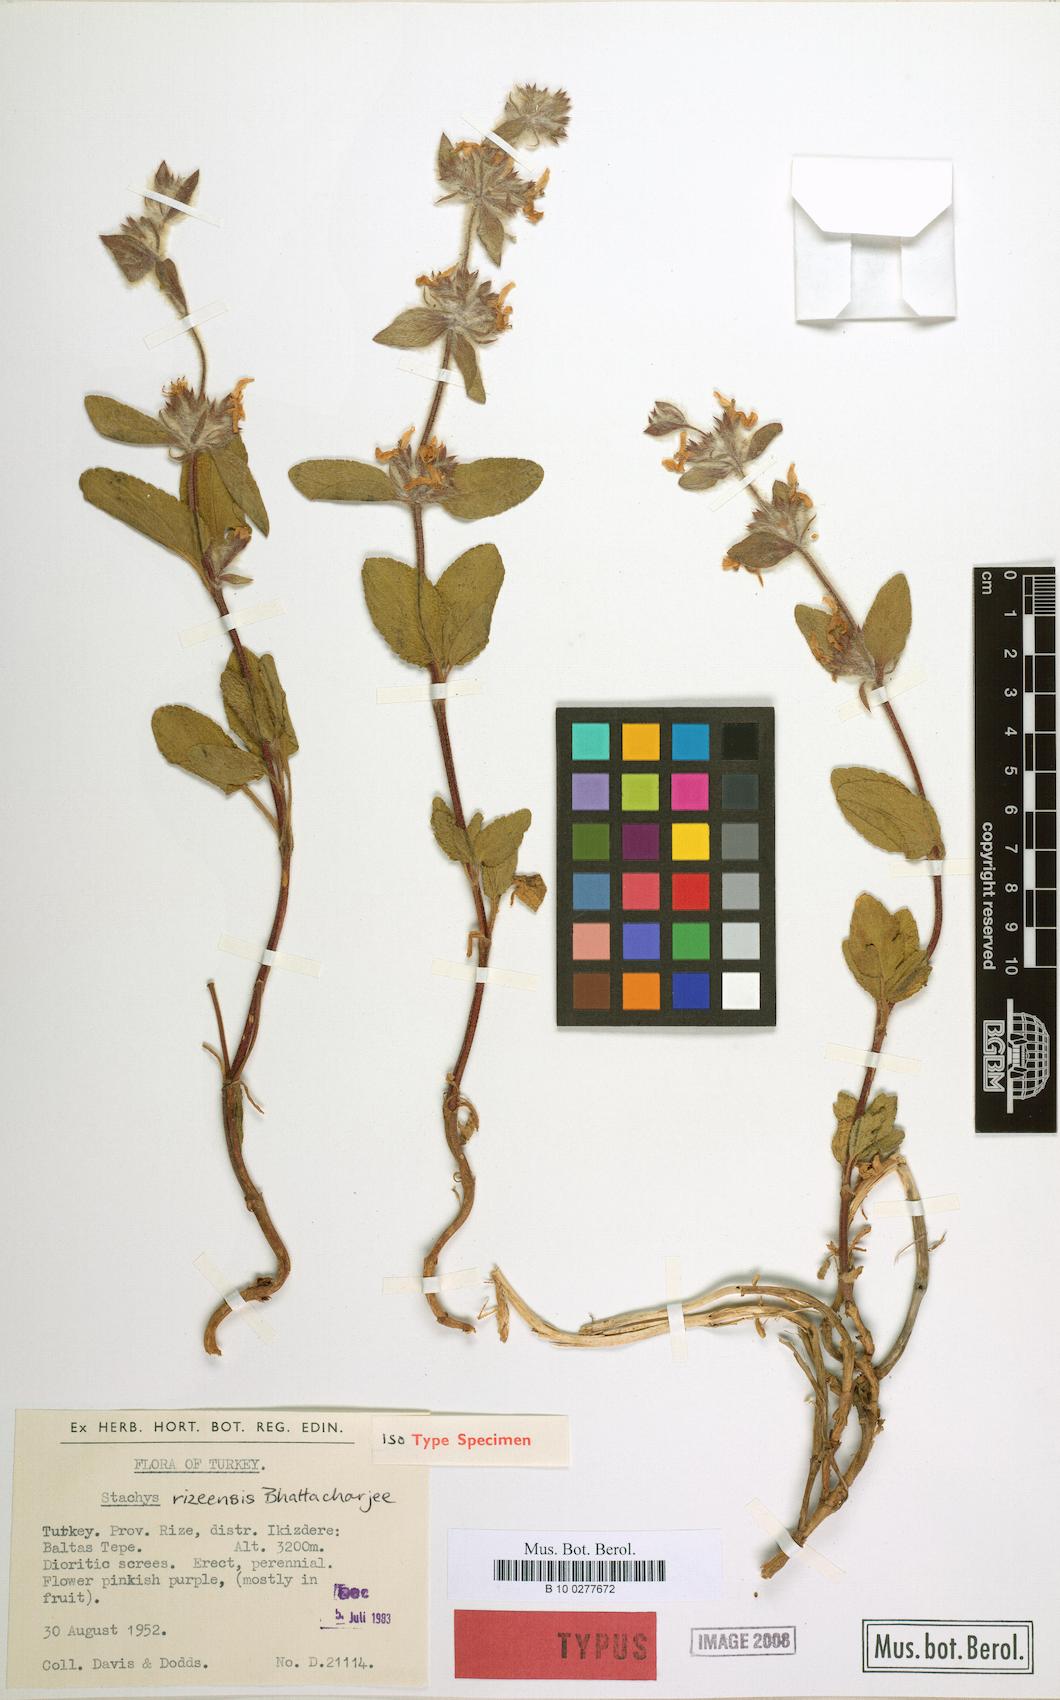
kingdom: Plantae
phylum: Tracheophyta
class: Magnoliopsida
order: Lamiales
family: Lamiaceae
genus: Stachys
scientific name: Stachys rizeensis
